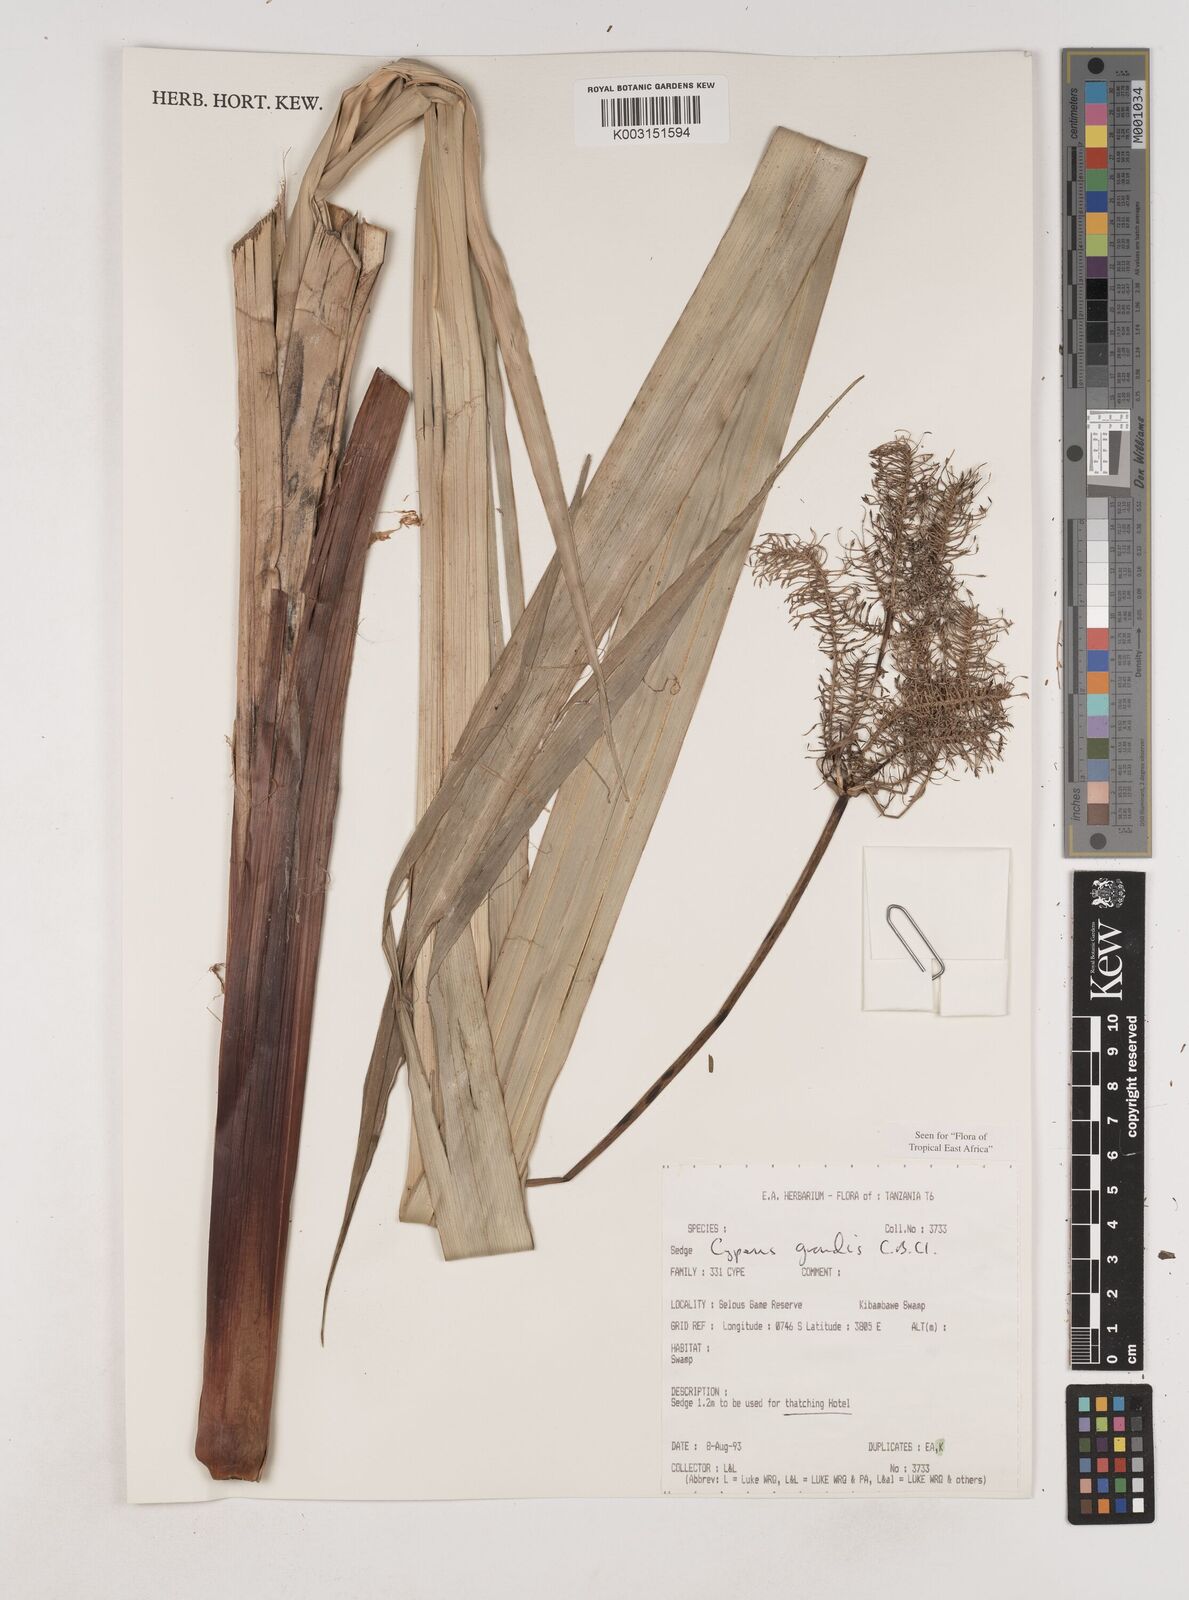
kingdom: Plantae
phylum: Tracheophyta
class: Liliopsida
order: Poales
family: Cyperaceae
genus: Cyperus
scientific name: Cyperus grandis
